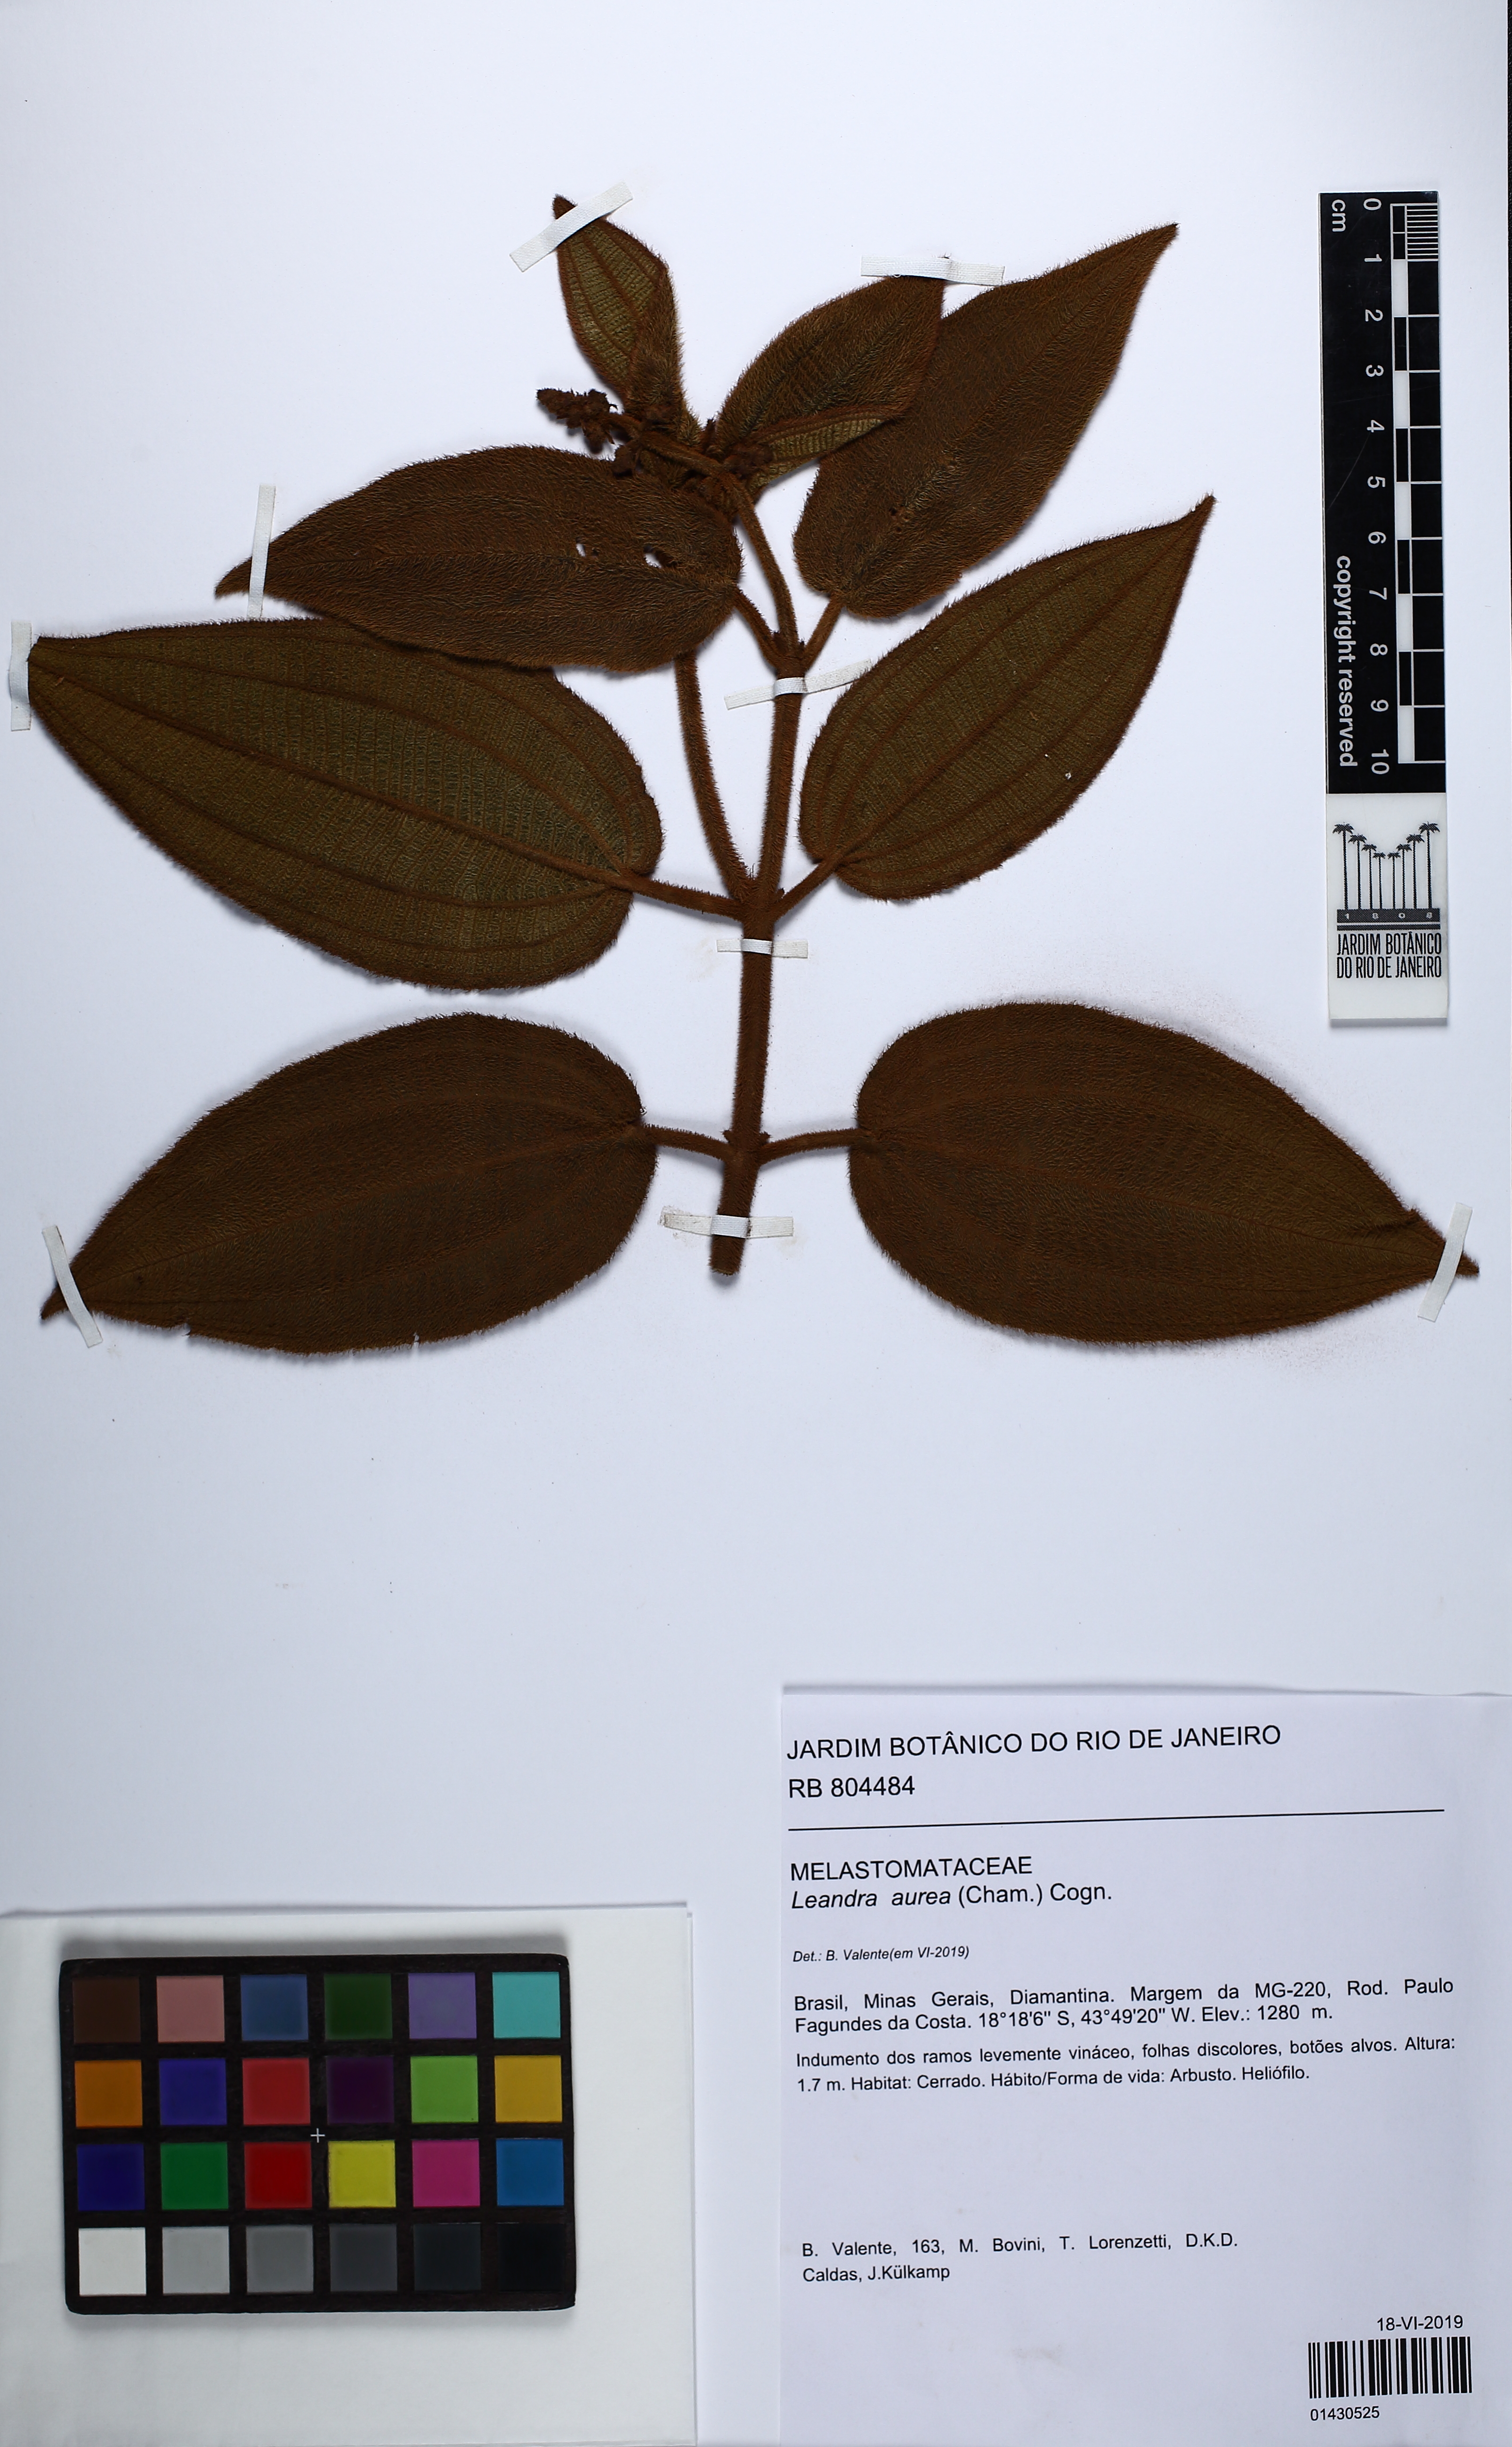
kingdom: Plantae
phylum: Tracheophyta
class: Magnoliopsida
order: Myrtales
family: Melastomataceae
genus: Miconia
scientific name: Miconia auricoma
